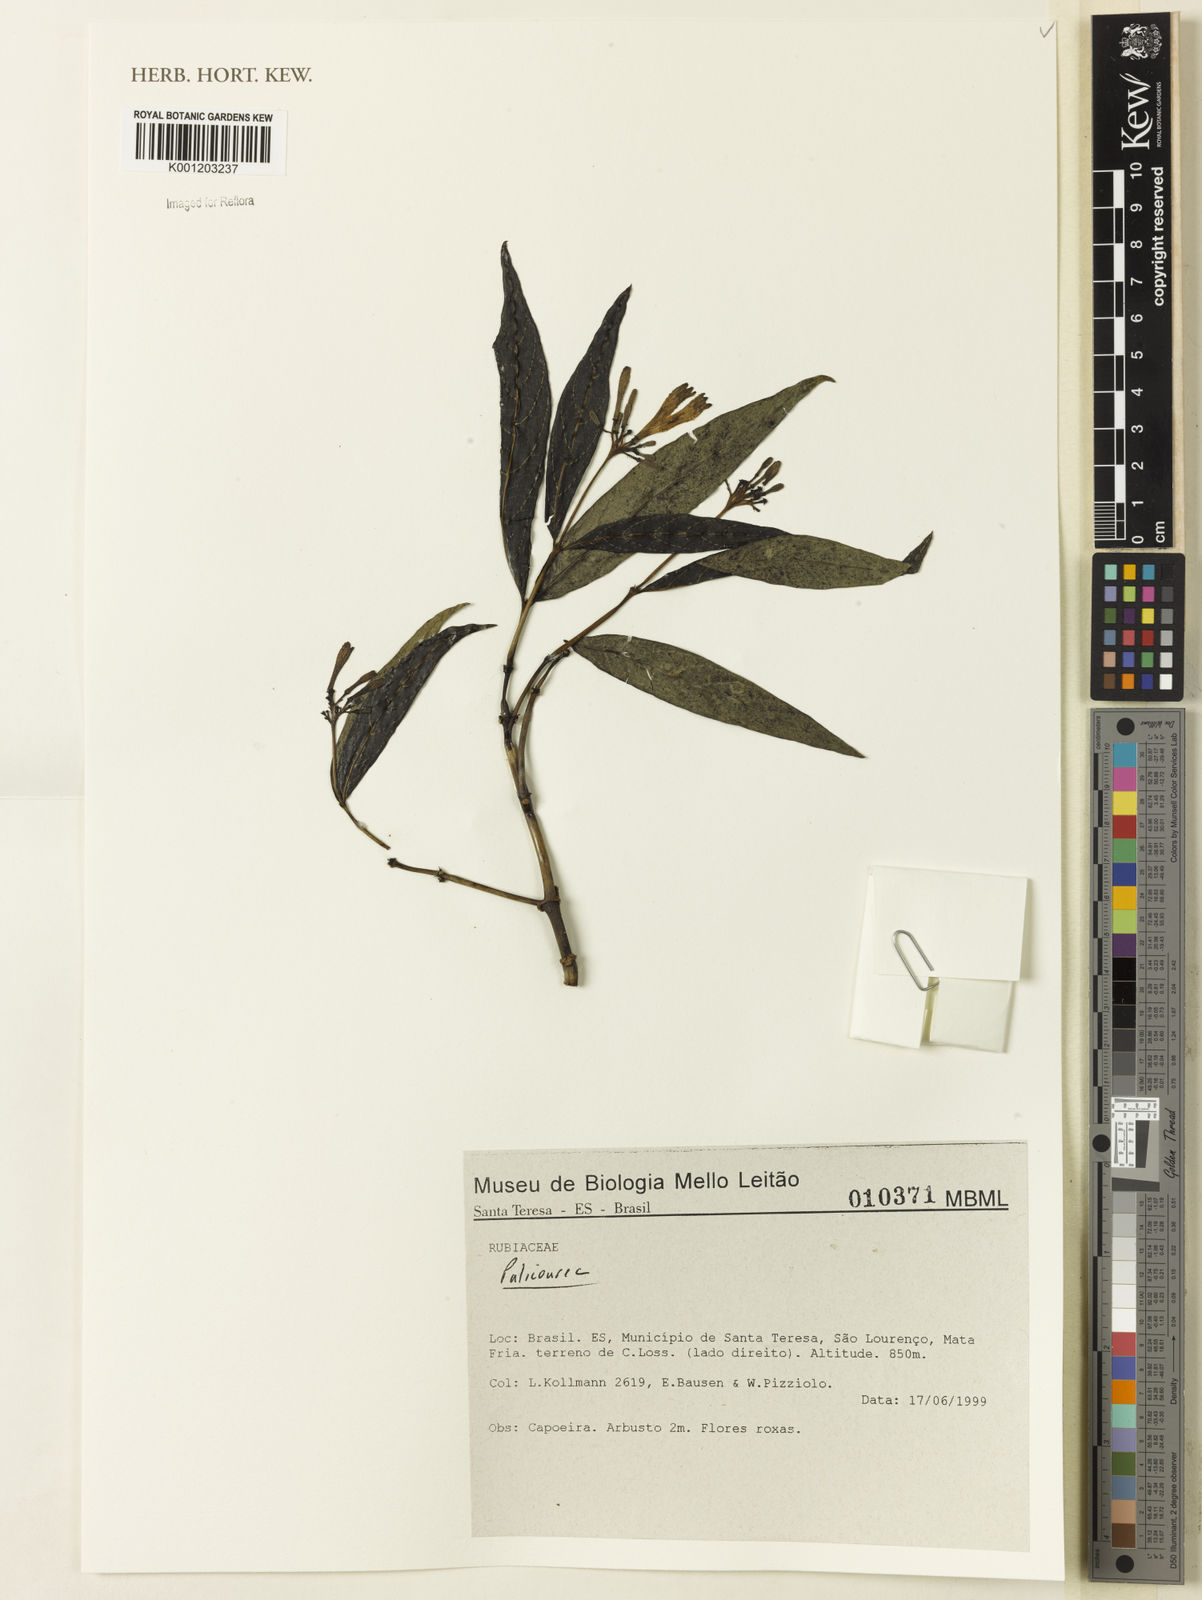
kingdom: Plantae
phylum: Tracheophyta
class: Magnoliopsida
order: Gentianales
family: Rubiaceae
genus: Palicourea
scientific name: Palicourea
